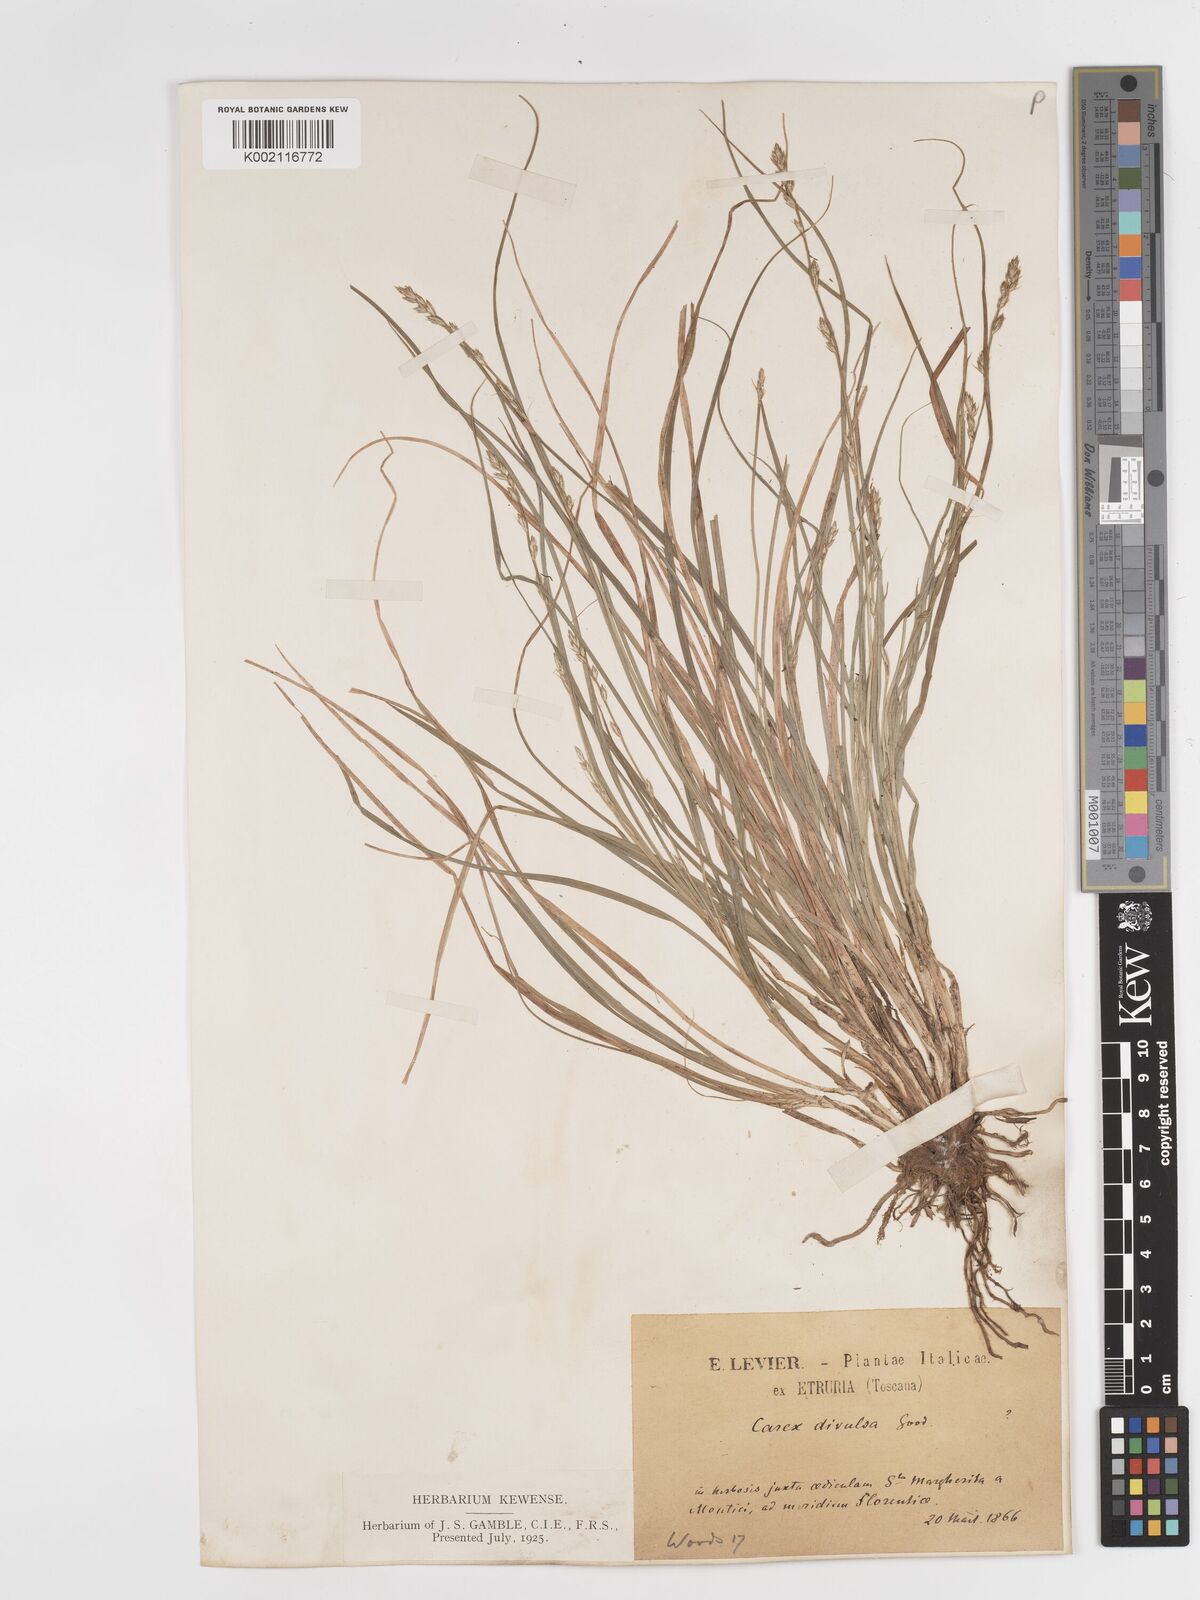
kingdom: Plantae
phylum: Tracheophyta
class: Liliopsida
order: Poales
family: Cyperaceae
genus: Carex
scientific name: Carex divulsa
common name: Grassland sedge
